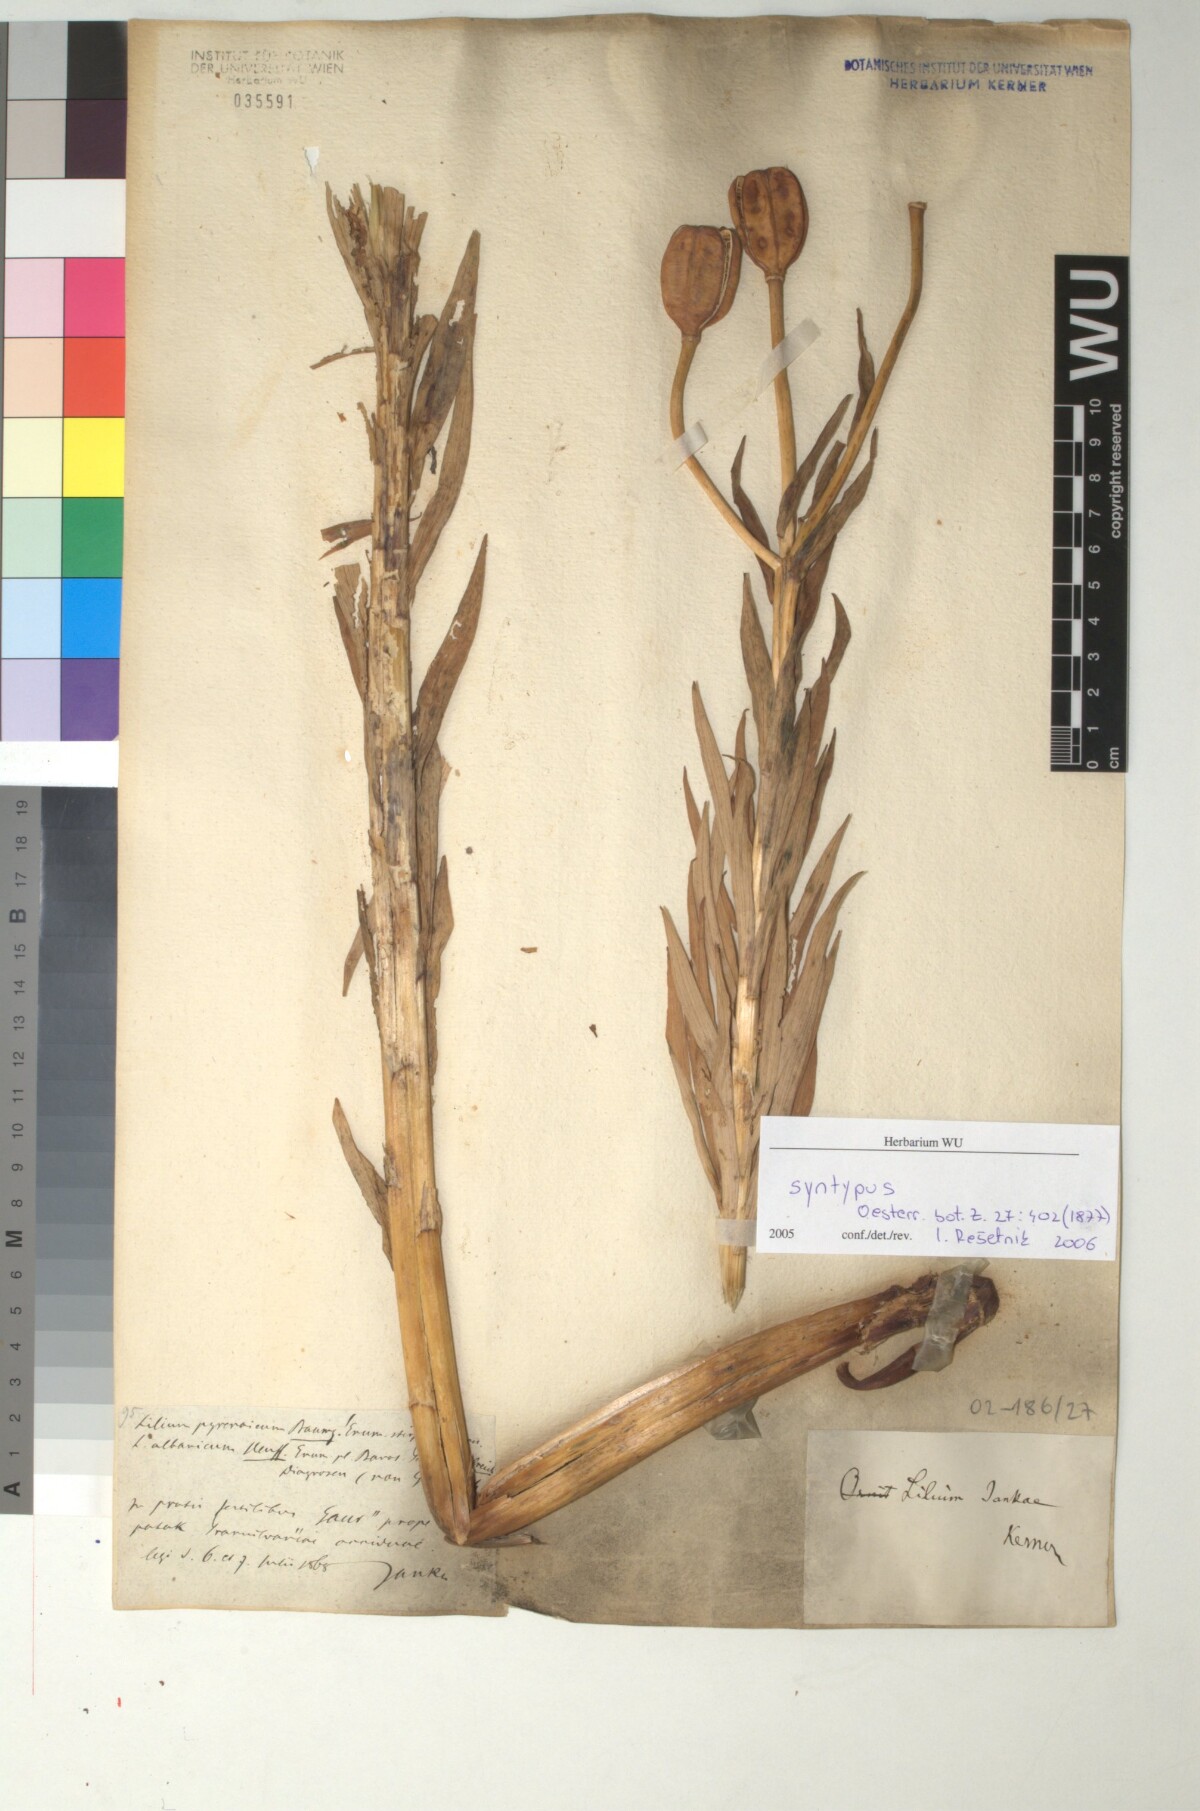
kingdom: Plantae
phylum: Tracheophyta
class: Liliopsida
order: Liliales
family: Liliaceae
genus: Lilium
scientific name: Lilium jankae
